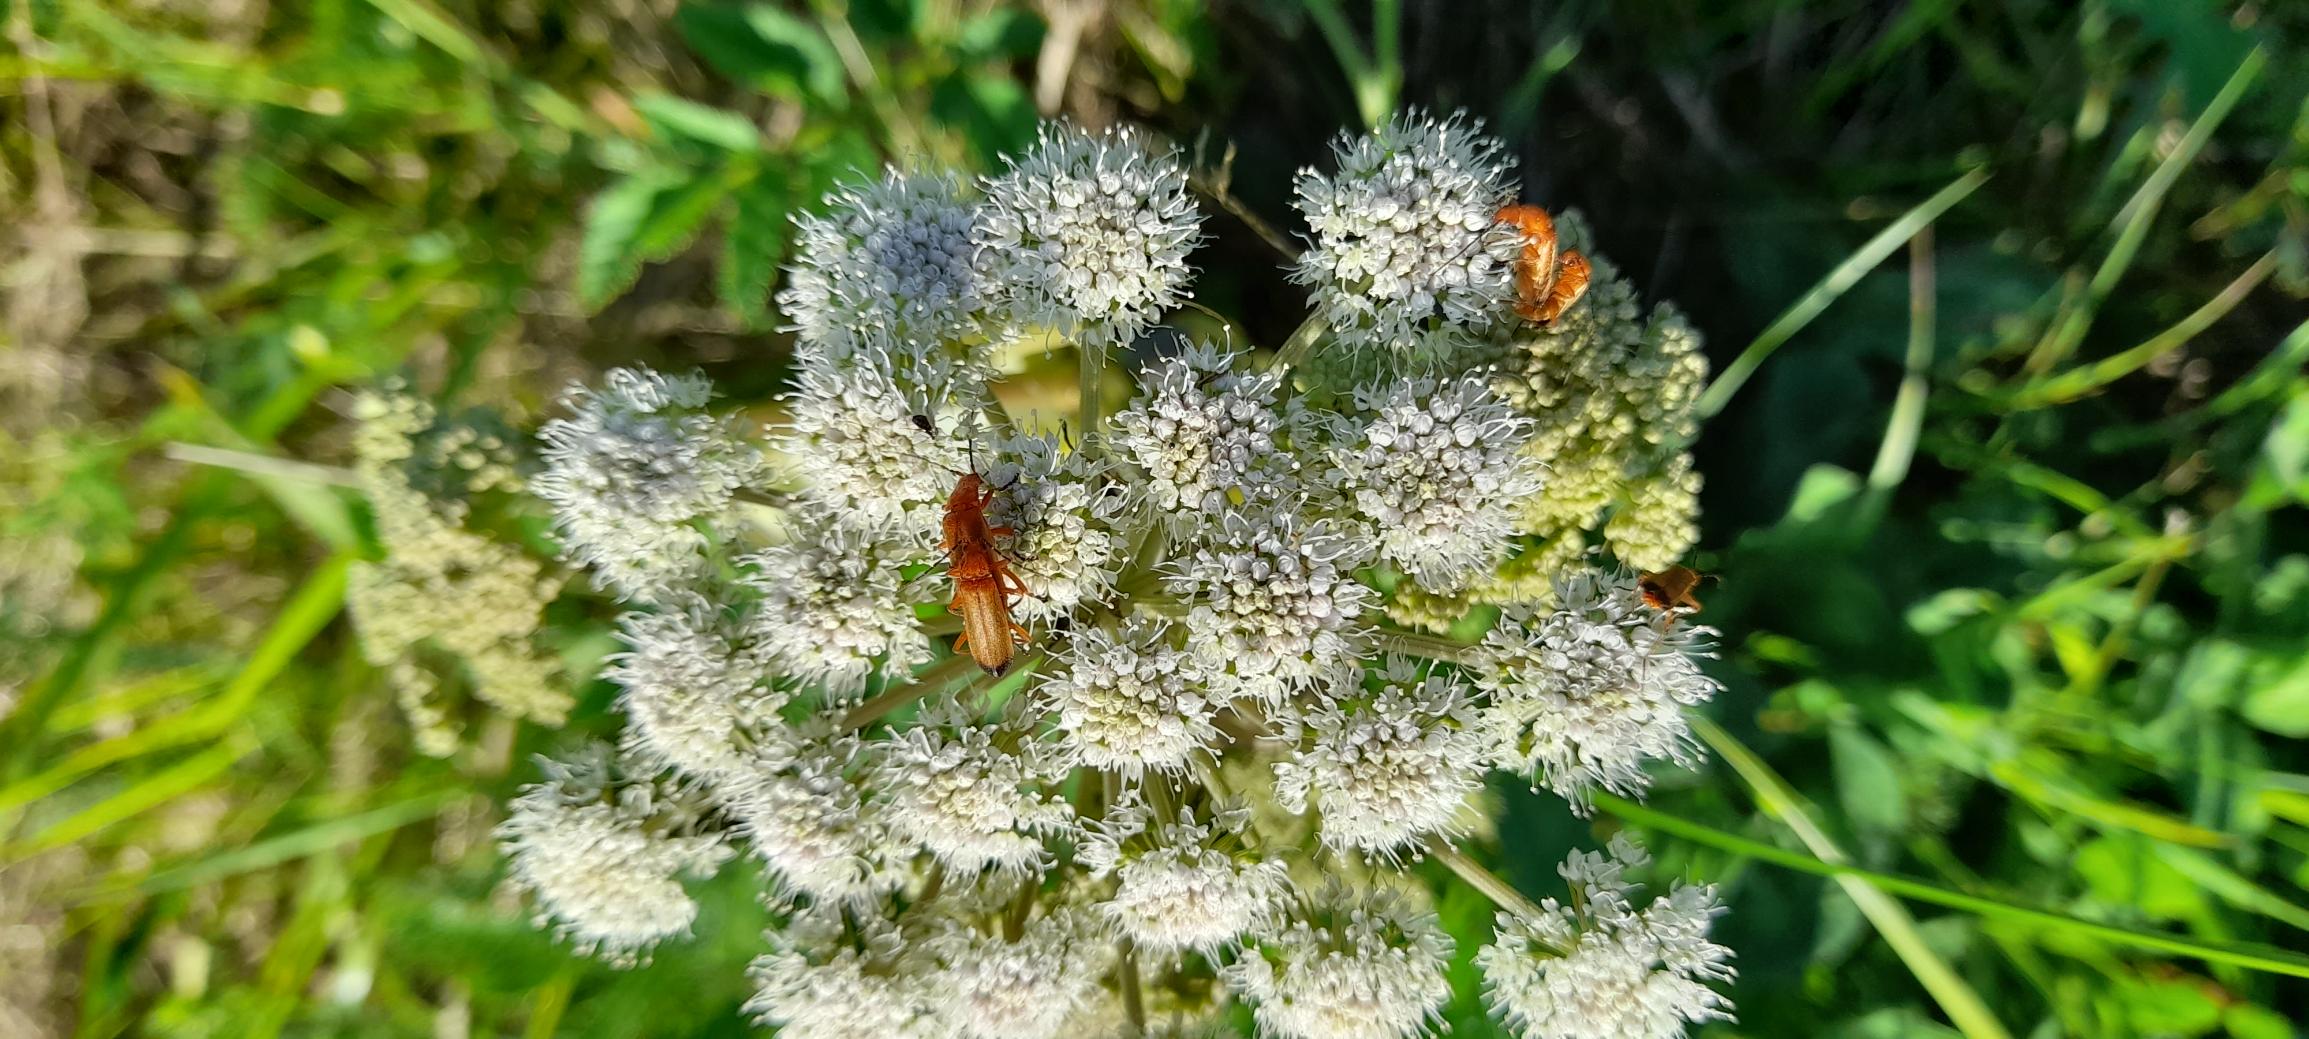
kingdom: Animalia
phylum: Arthropoda
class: Insecta
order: Coleoptera
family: Cantharidae
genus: Rhagonycha
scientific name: Rhagonycha fulva
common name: Præstebille
